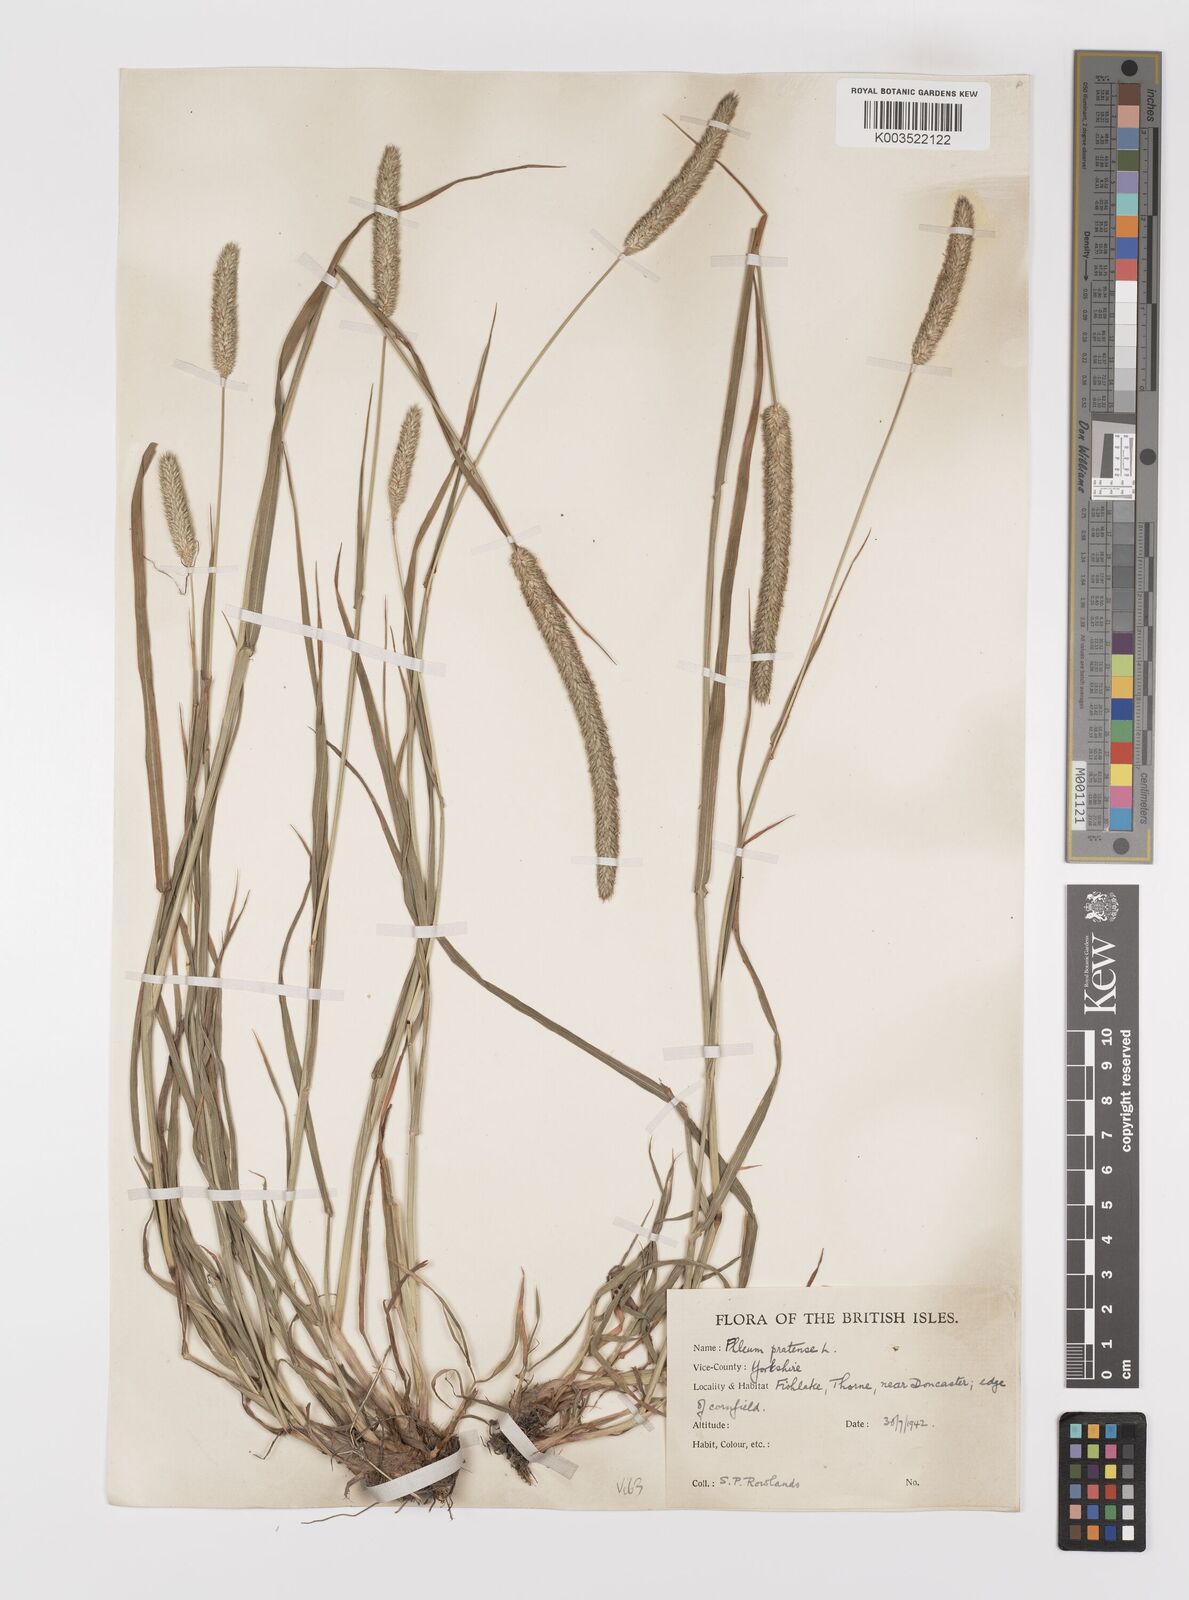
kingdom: Plantae
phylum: Tracheophyta
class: Liliopsida
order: Poales
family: Poaceae
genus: Phleum
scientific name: Phleum pratense
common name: Timothy grass
